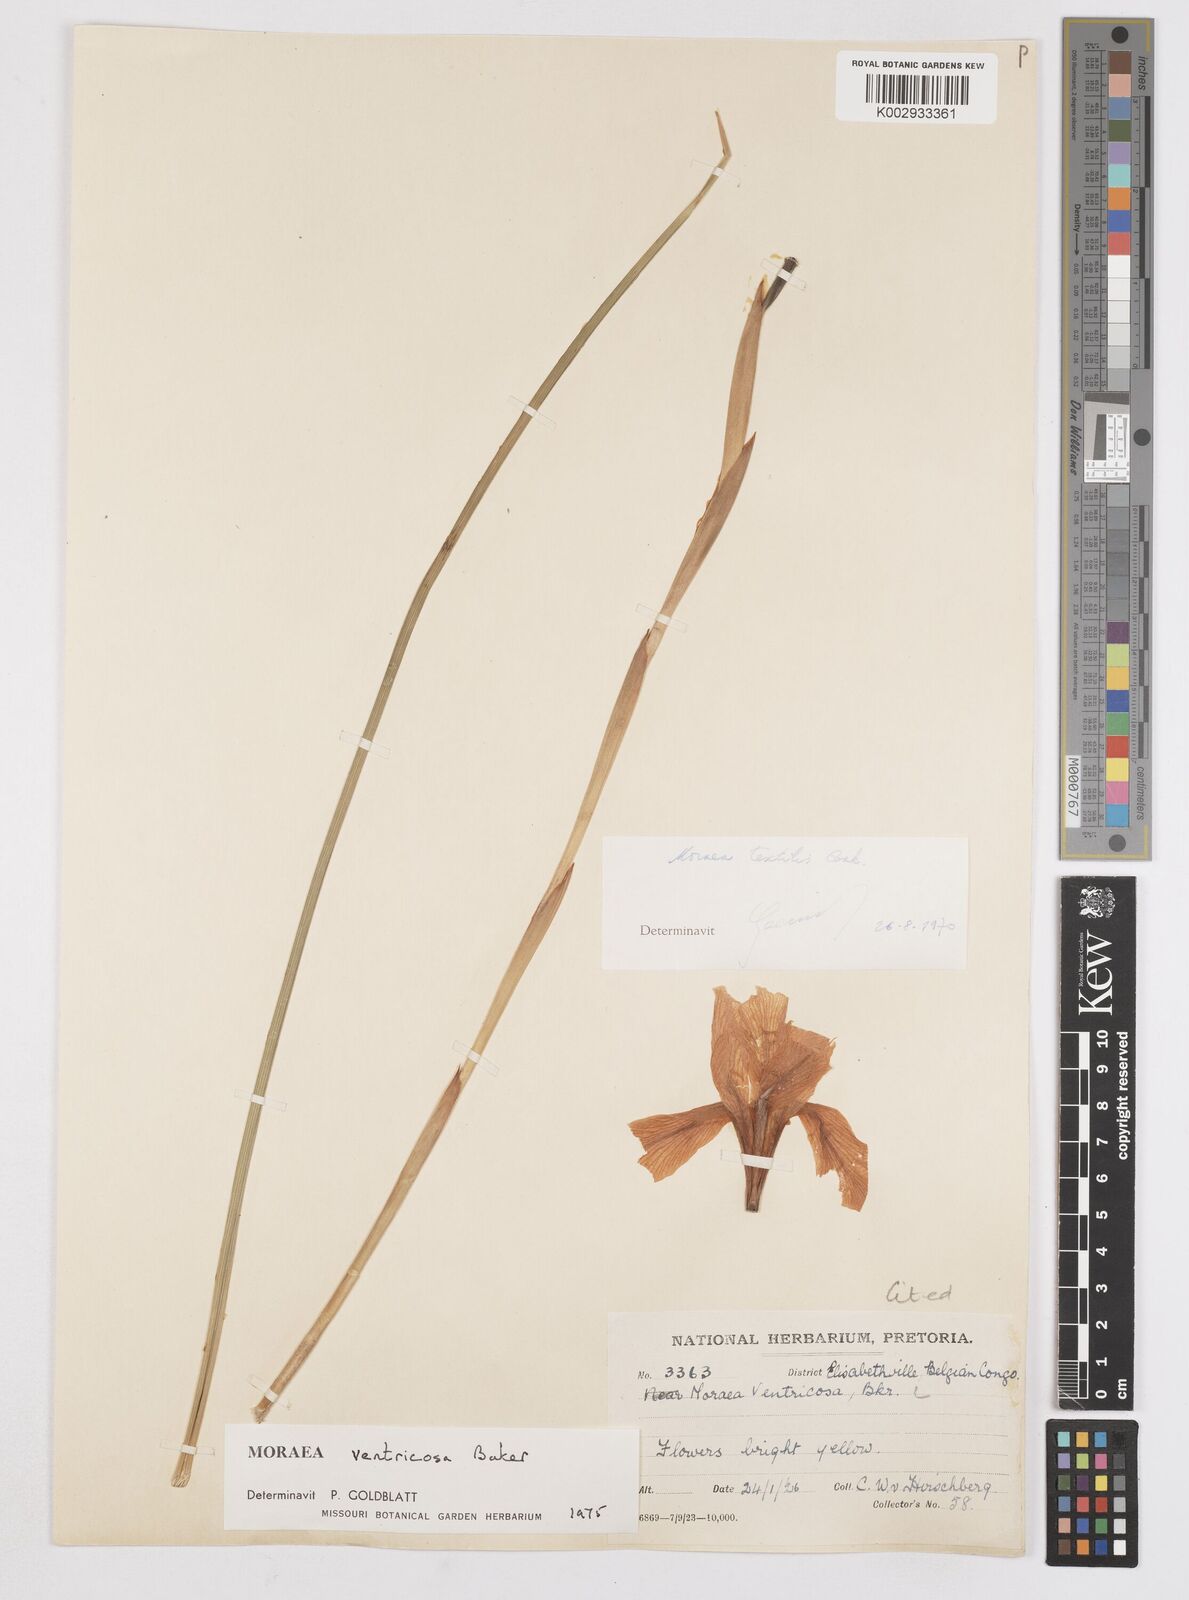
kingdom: Plantae
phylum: Tracheophyta
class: Liliopsida
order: Asparagales
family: Iridaceae
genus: Moraea
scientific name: Moraea ventricosa
